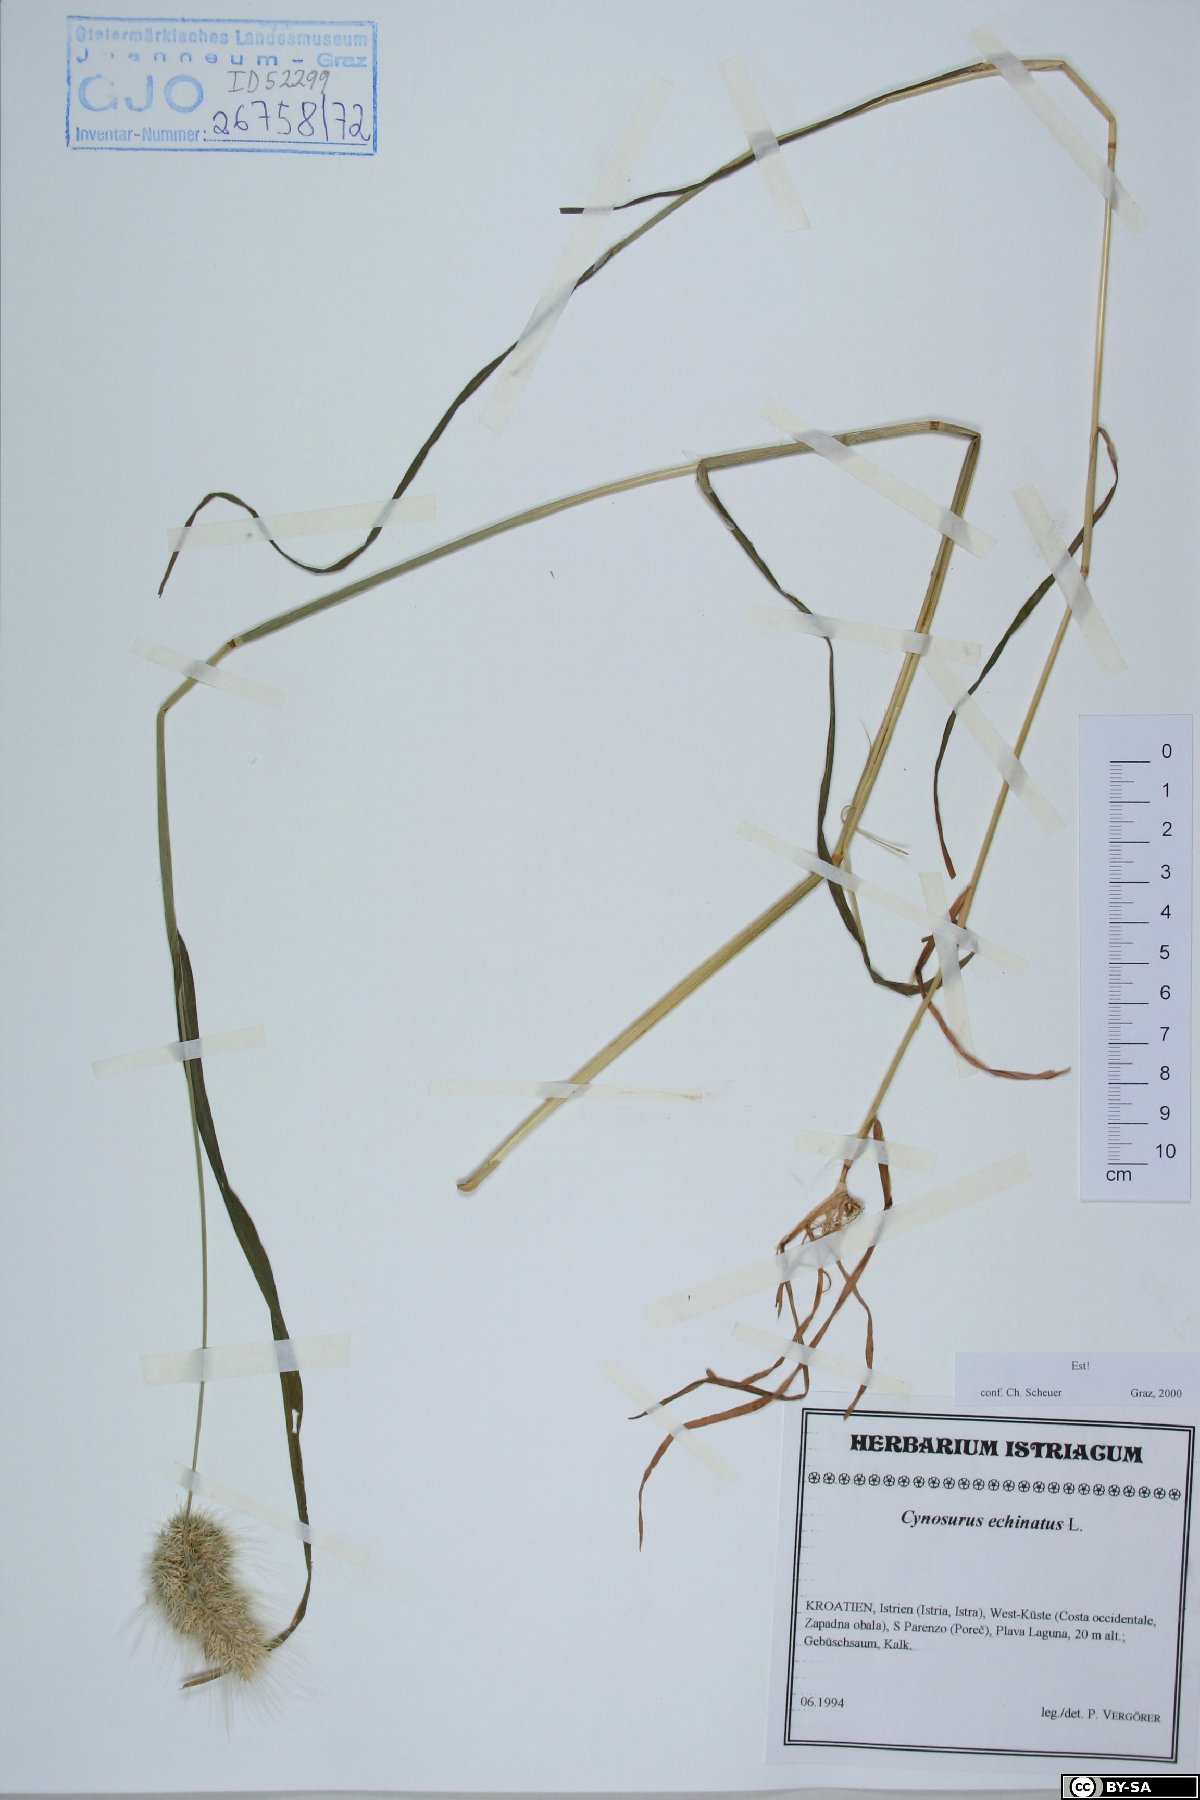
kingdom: Plantae
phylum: Tracheophyta
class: Liliopsida
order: Poales
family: Poaceae
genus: Cynosurus
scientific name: Cynosurus echinatus
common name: Rough dog's-tail
